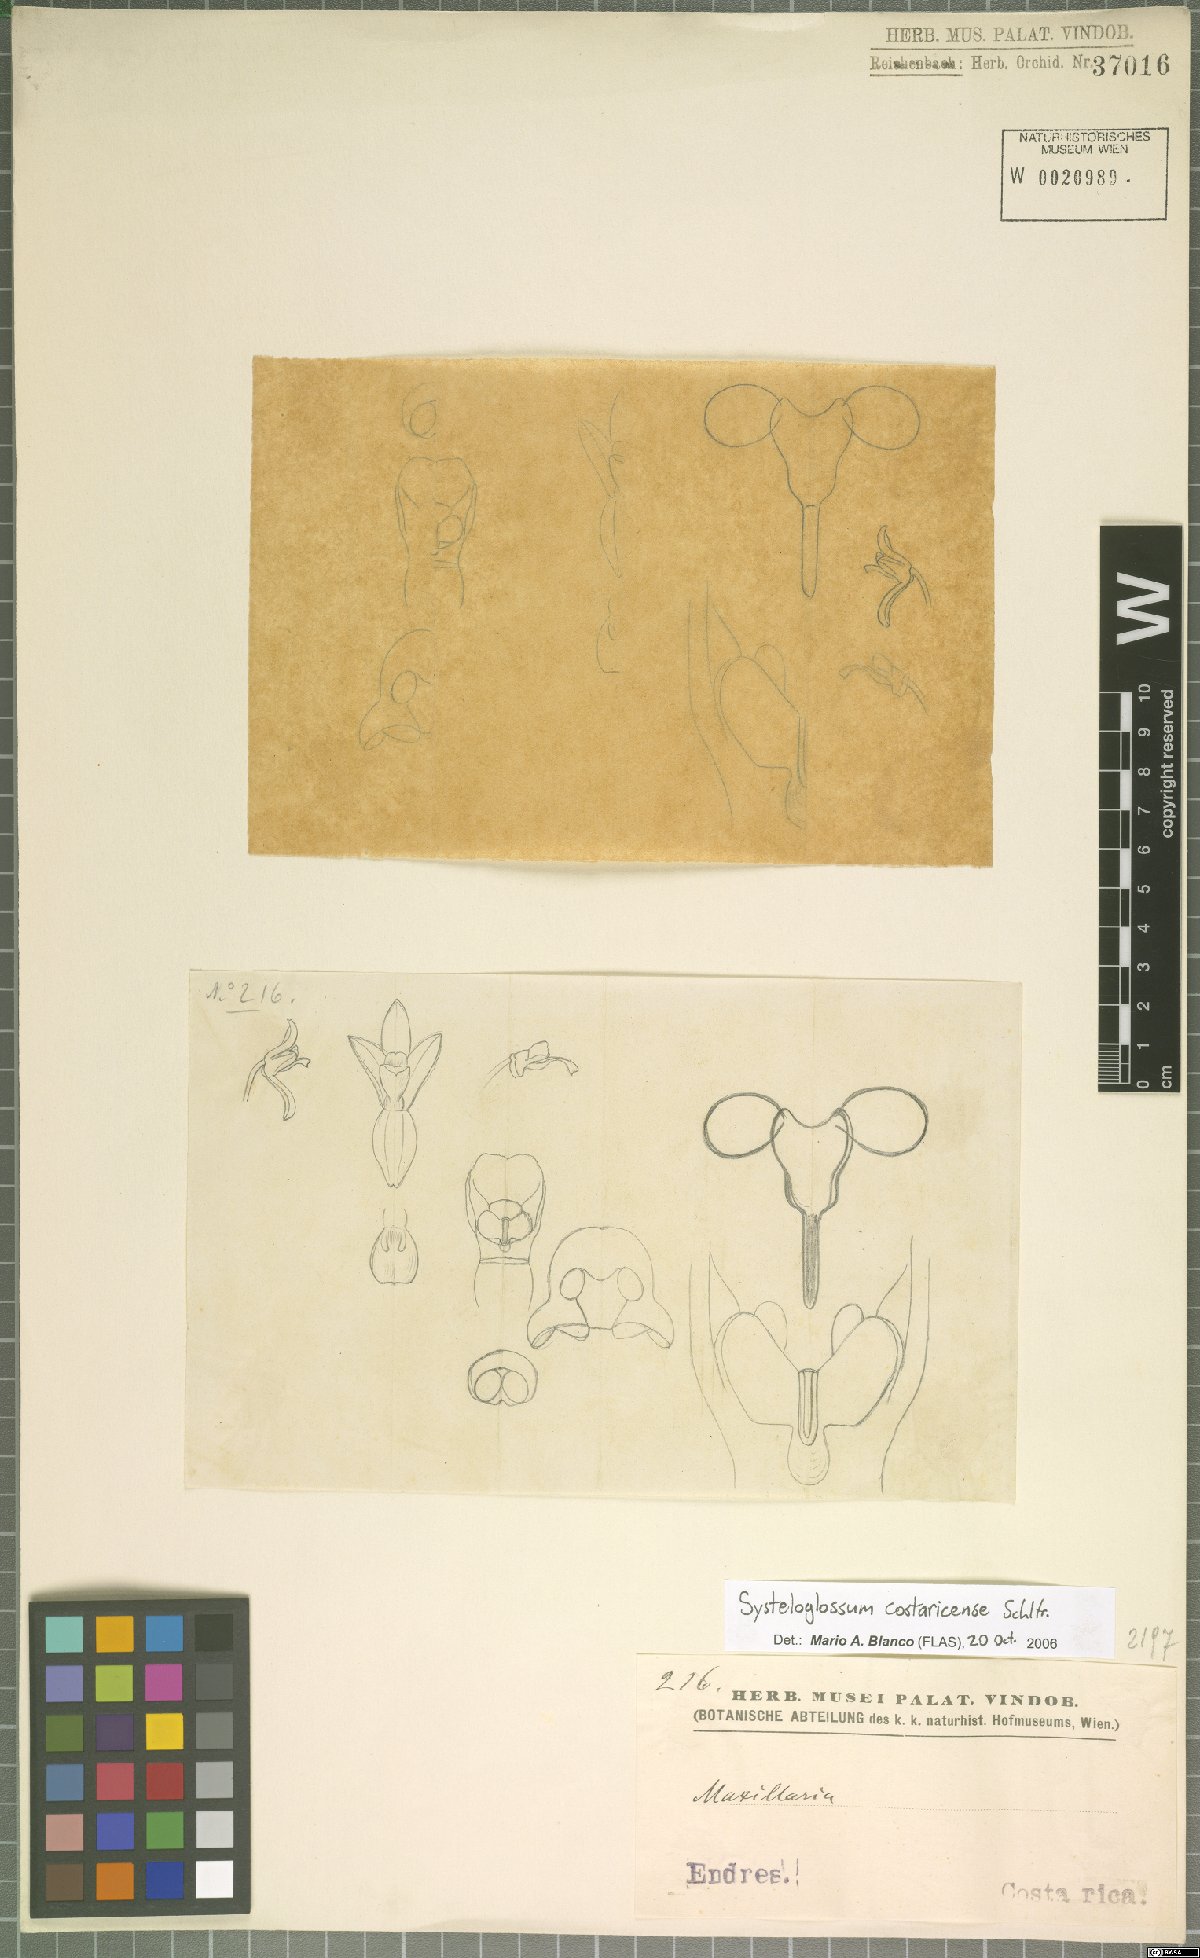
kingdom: Plantae
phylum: Tracheophyta
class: Liliopsida
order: Asparagales
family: Orchidaceae
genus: Systeloglossum
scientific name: Systeloglossum costaricense
